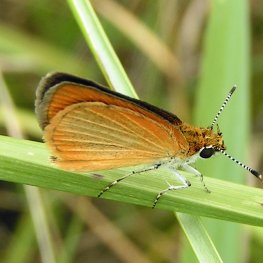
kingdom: Animalia
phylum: Arthropoda
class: Insecta
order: Lepidoptera
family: Hesperiidae
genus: Ancyloxypha
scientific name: Ancyloxypha numitor
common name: Least Skipper
